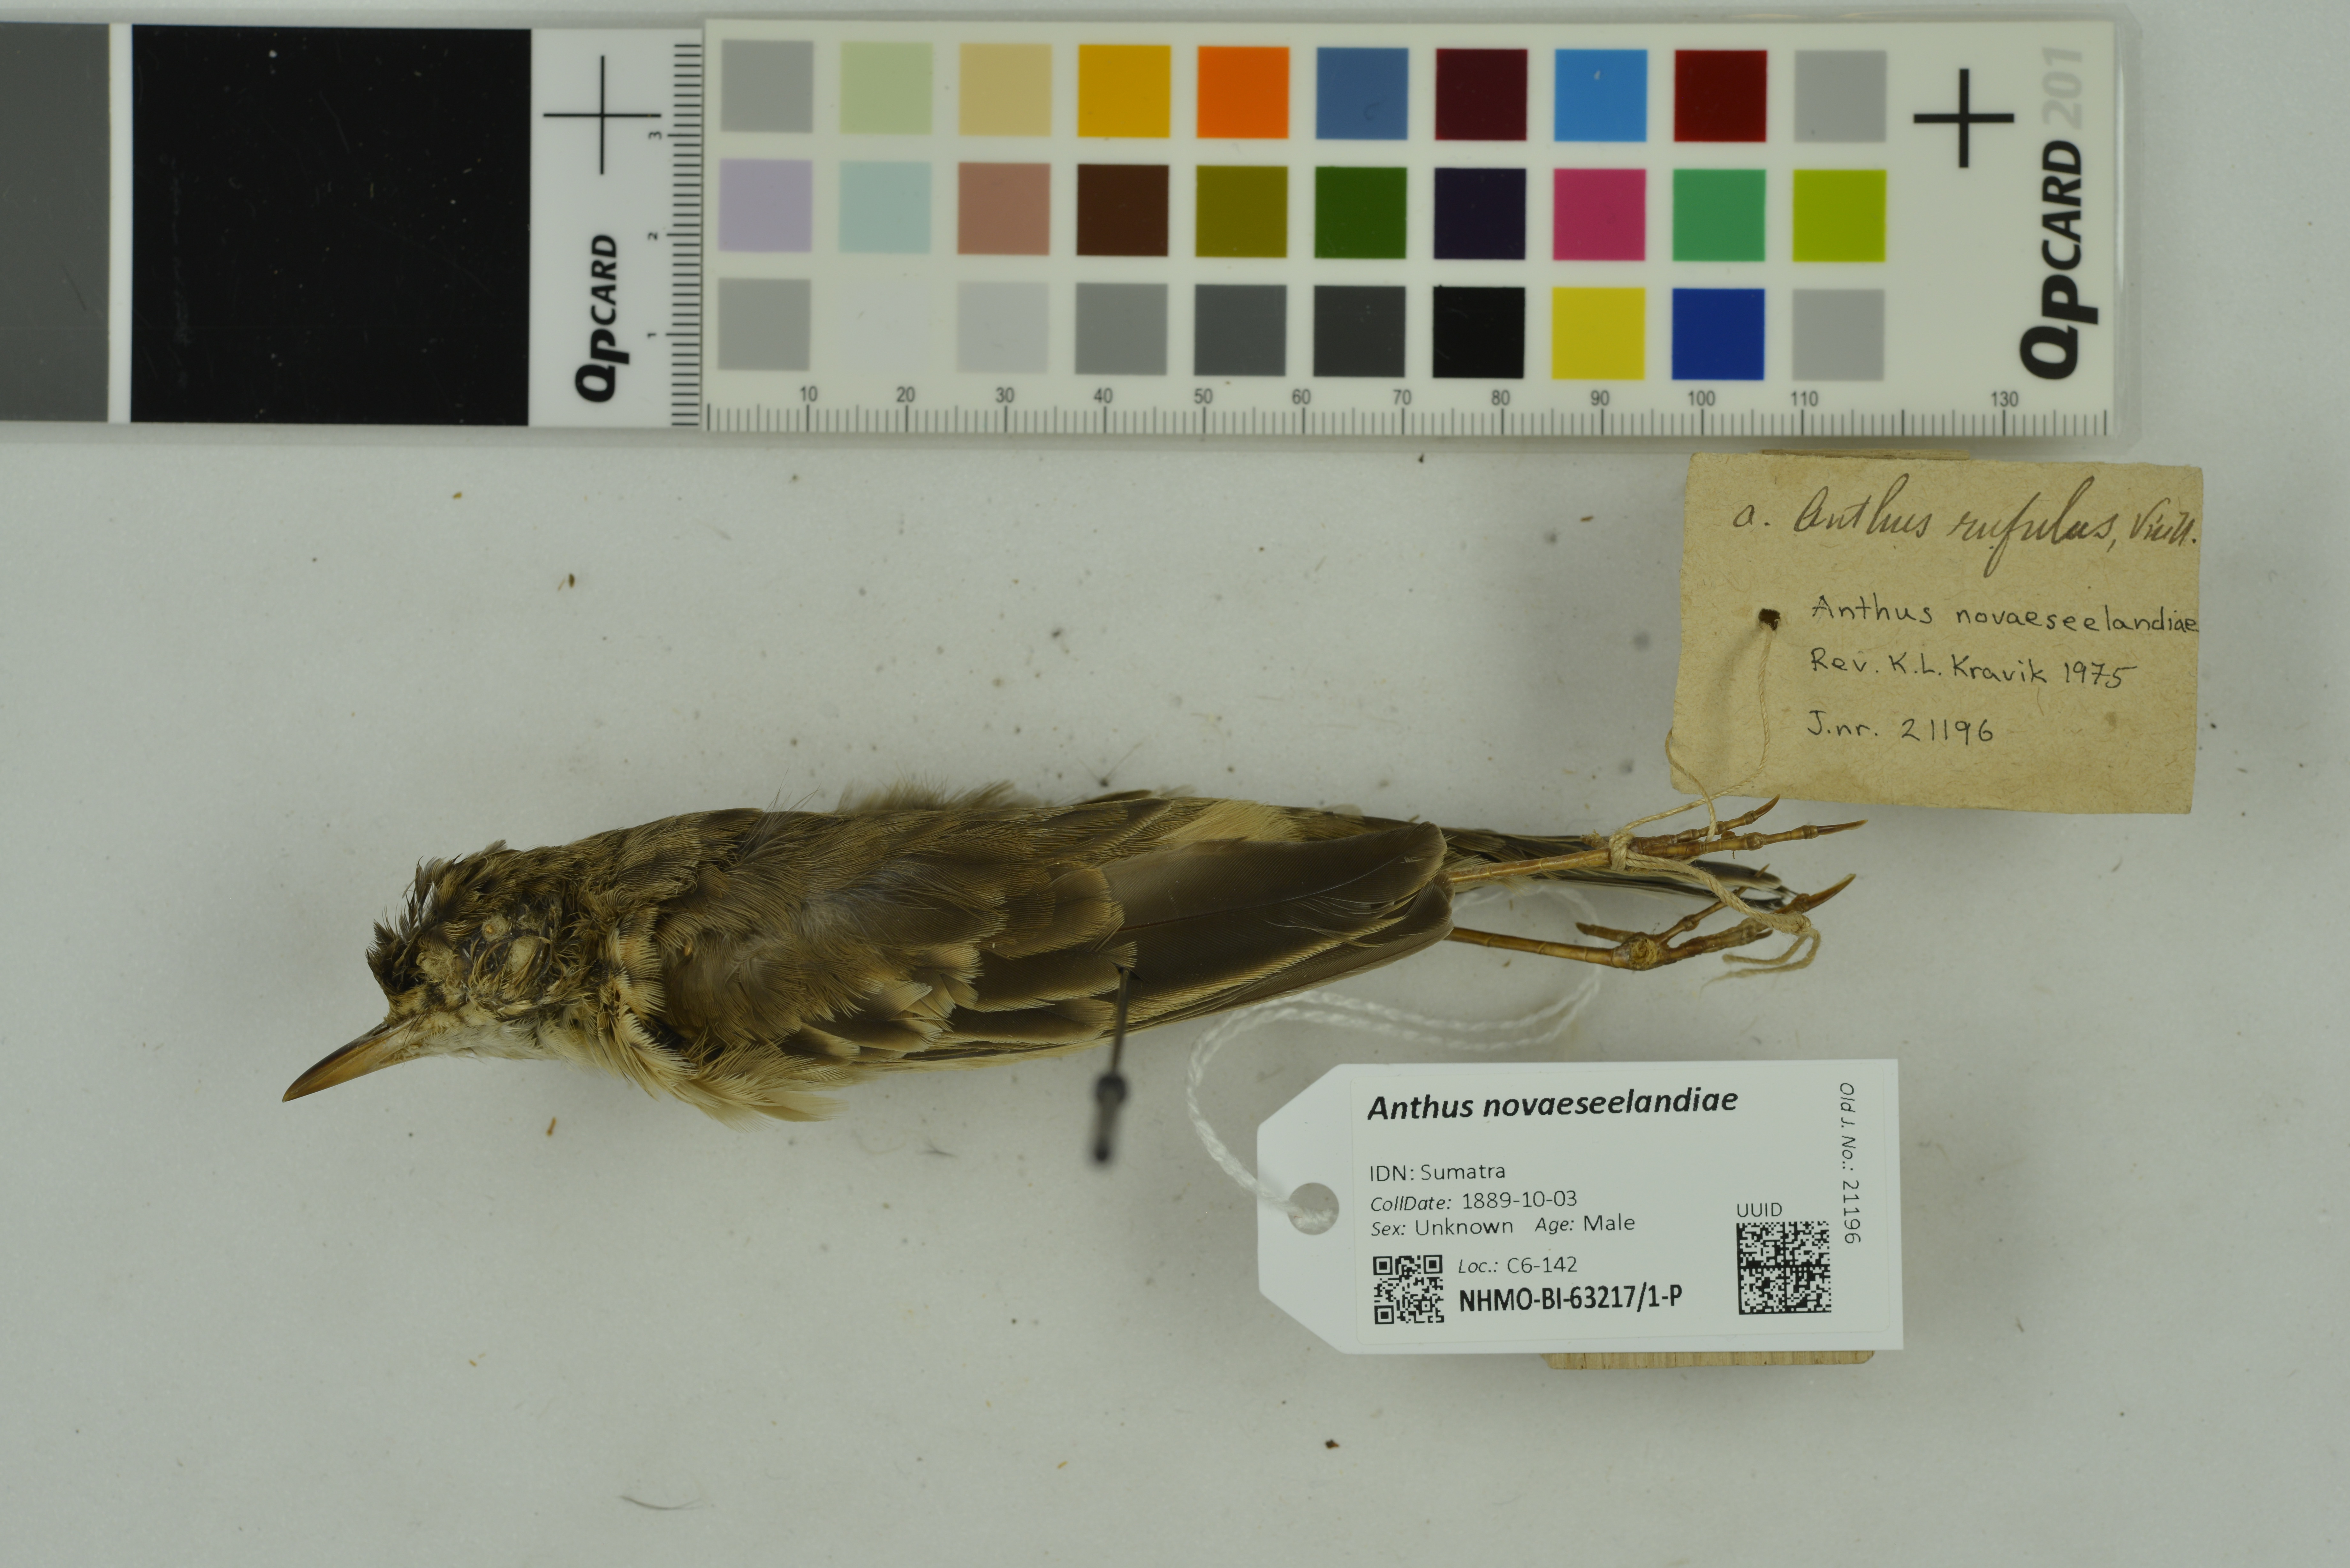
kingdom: Animalia
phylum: Chordata
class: Aves
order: Passeriformes
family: Motacillidae
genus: Anthus
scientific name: Anthus novaeseelandiae
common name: New zealand pipit
